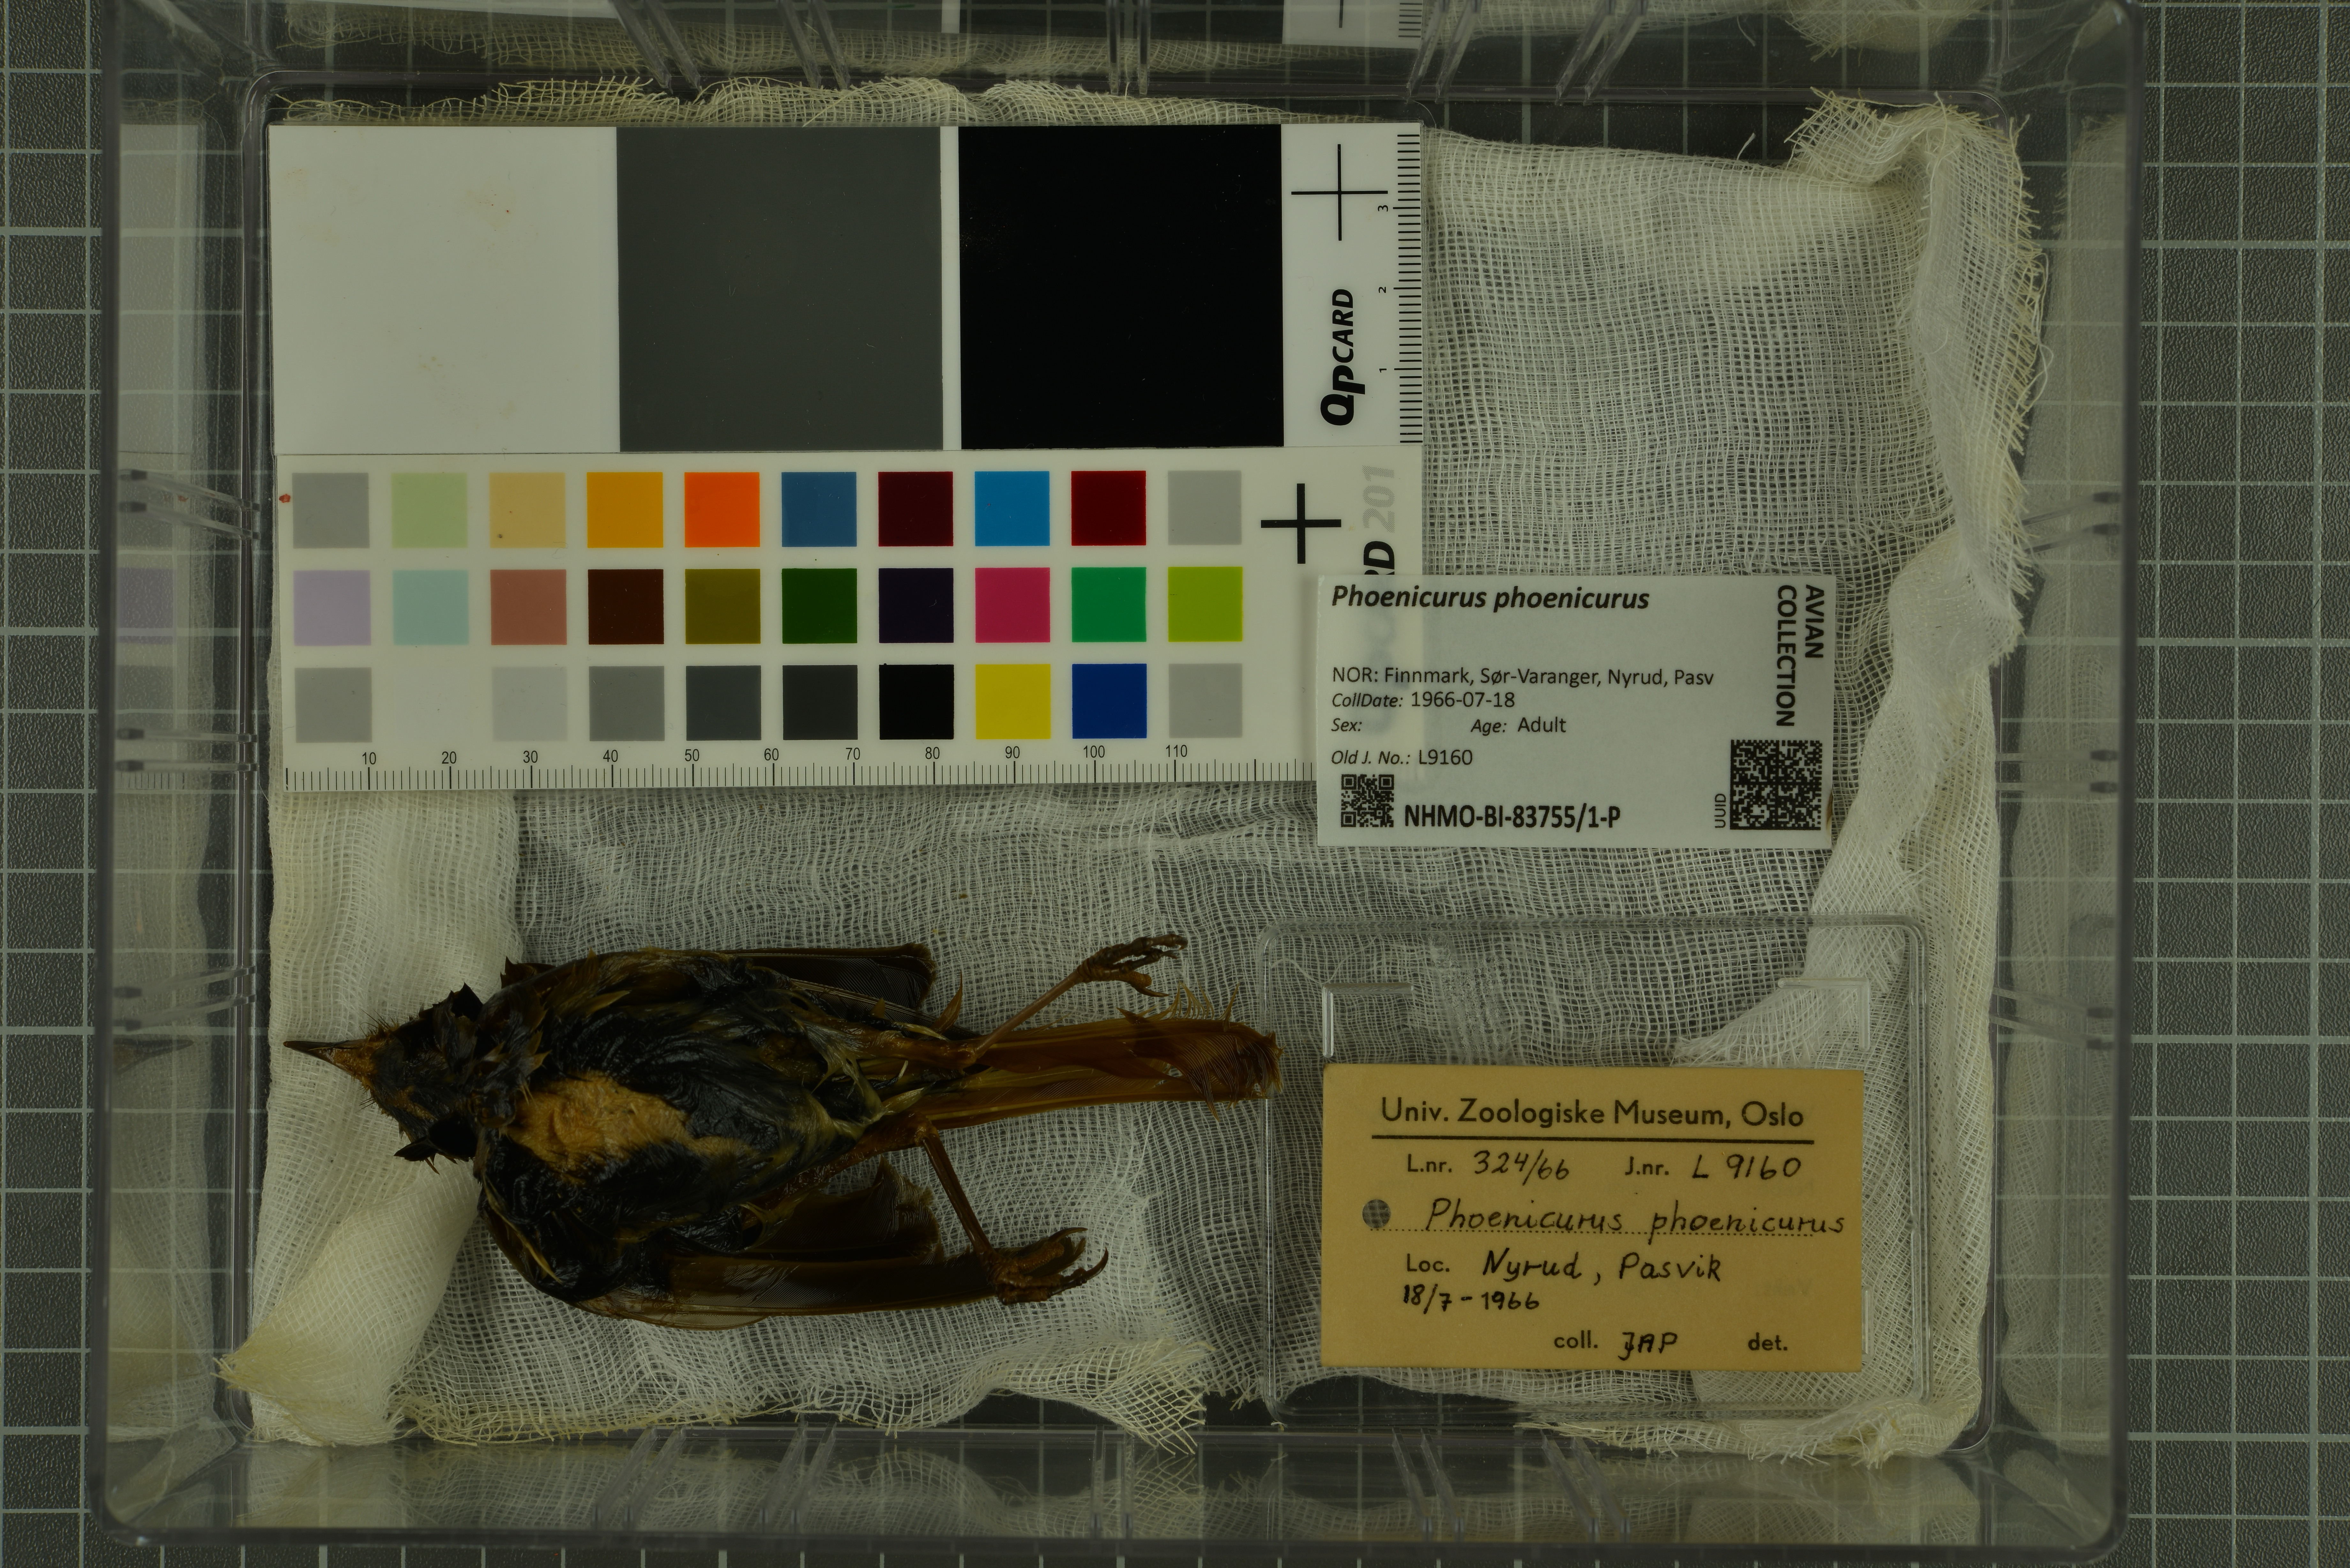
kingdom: Animalia
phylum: Chordata
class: Aves
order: Passeriformes
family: Muscicapidae
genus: Phoenicurus
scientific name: Phoenicurus phoenicurus
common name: Common redstart
